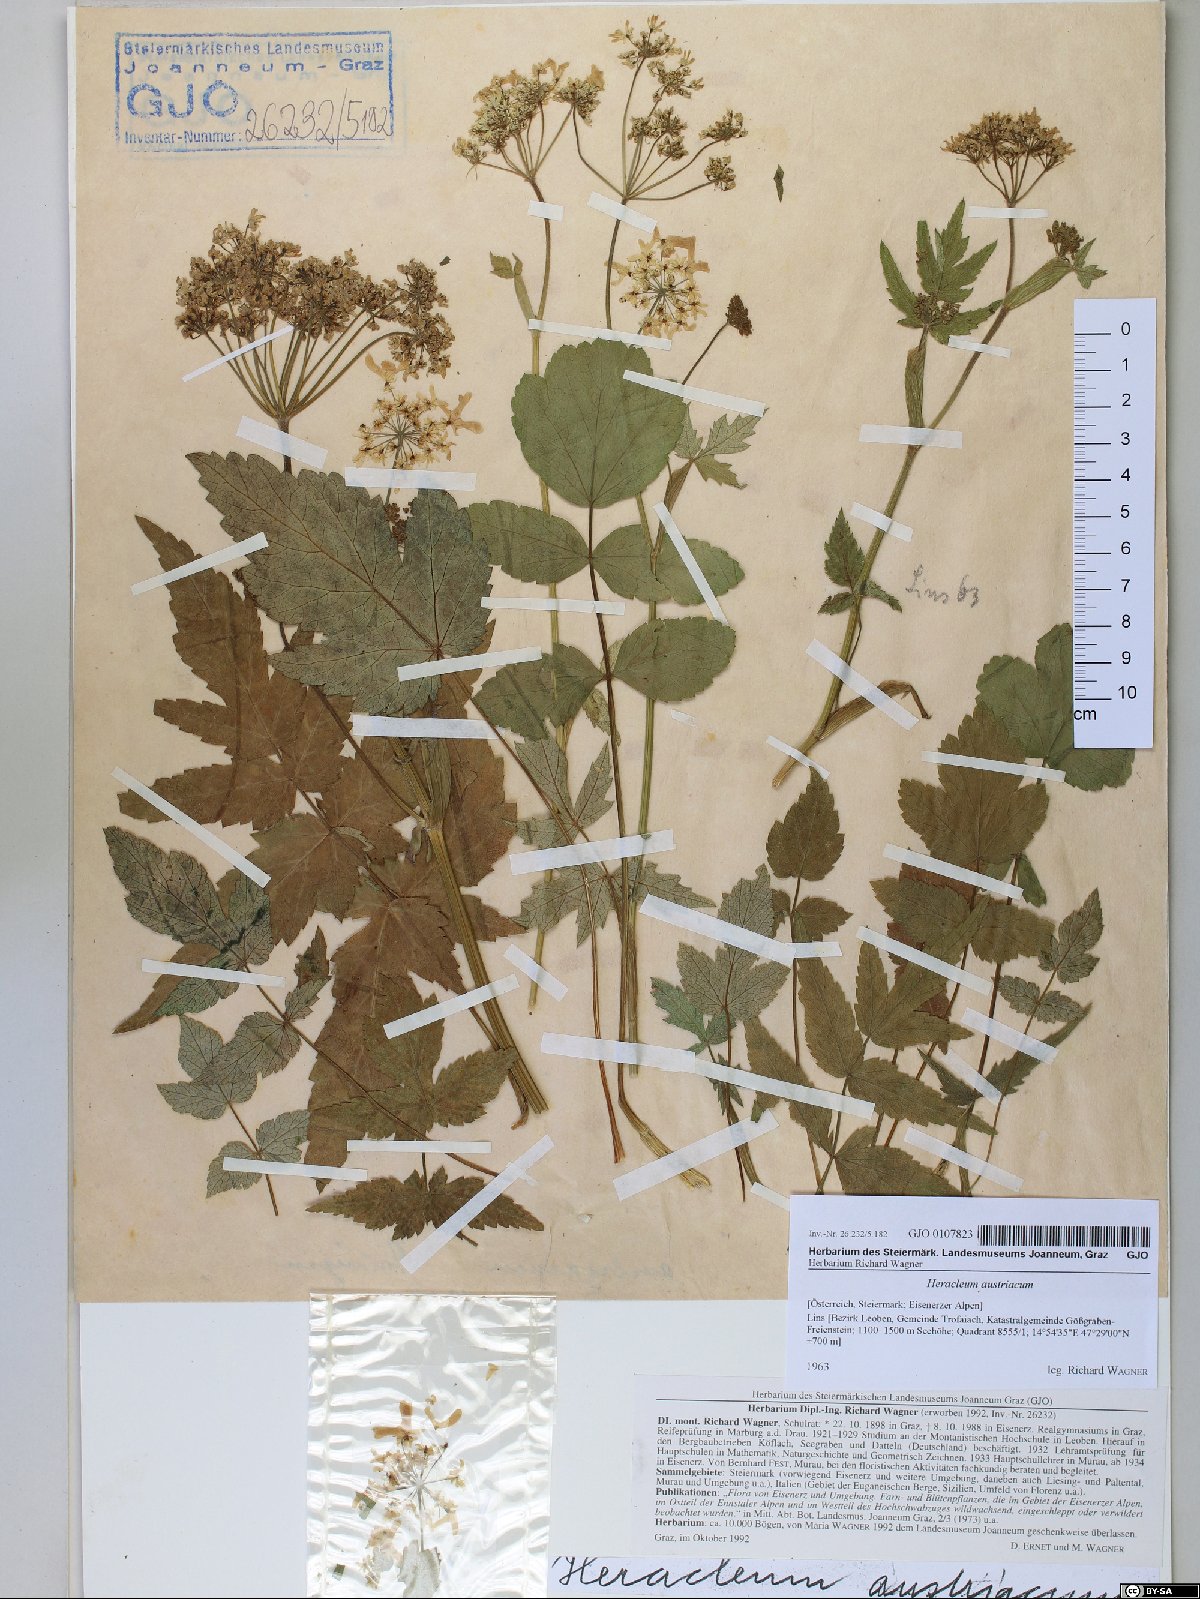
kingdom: Plantae
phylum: Tracheophyta
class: Magnoliopsida
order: Apiales
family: Apiaceae
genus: Heracleum
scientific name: Heracleum austriacum
